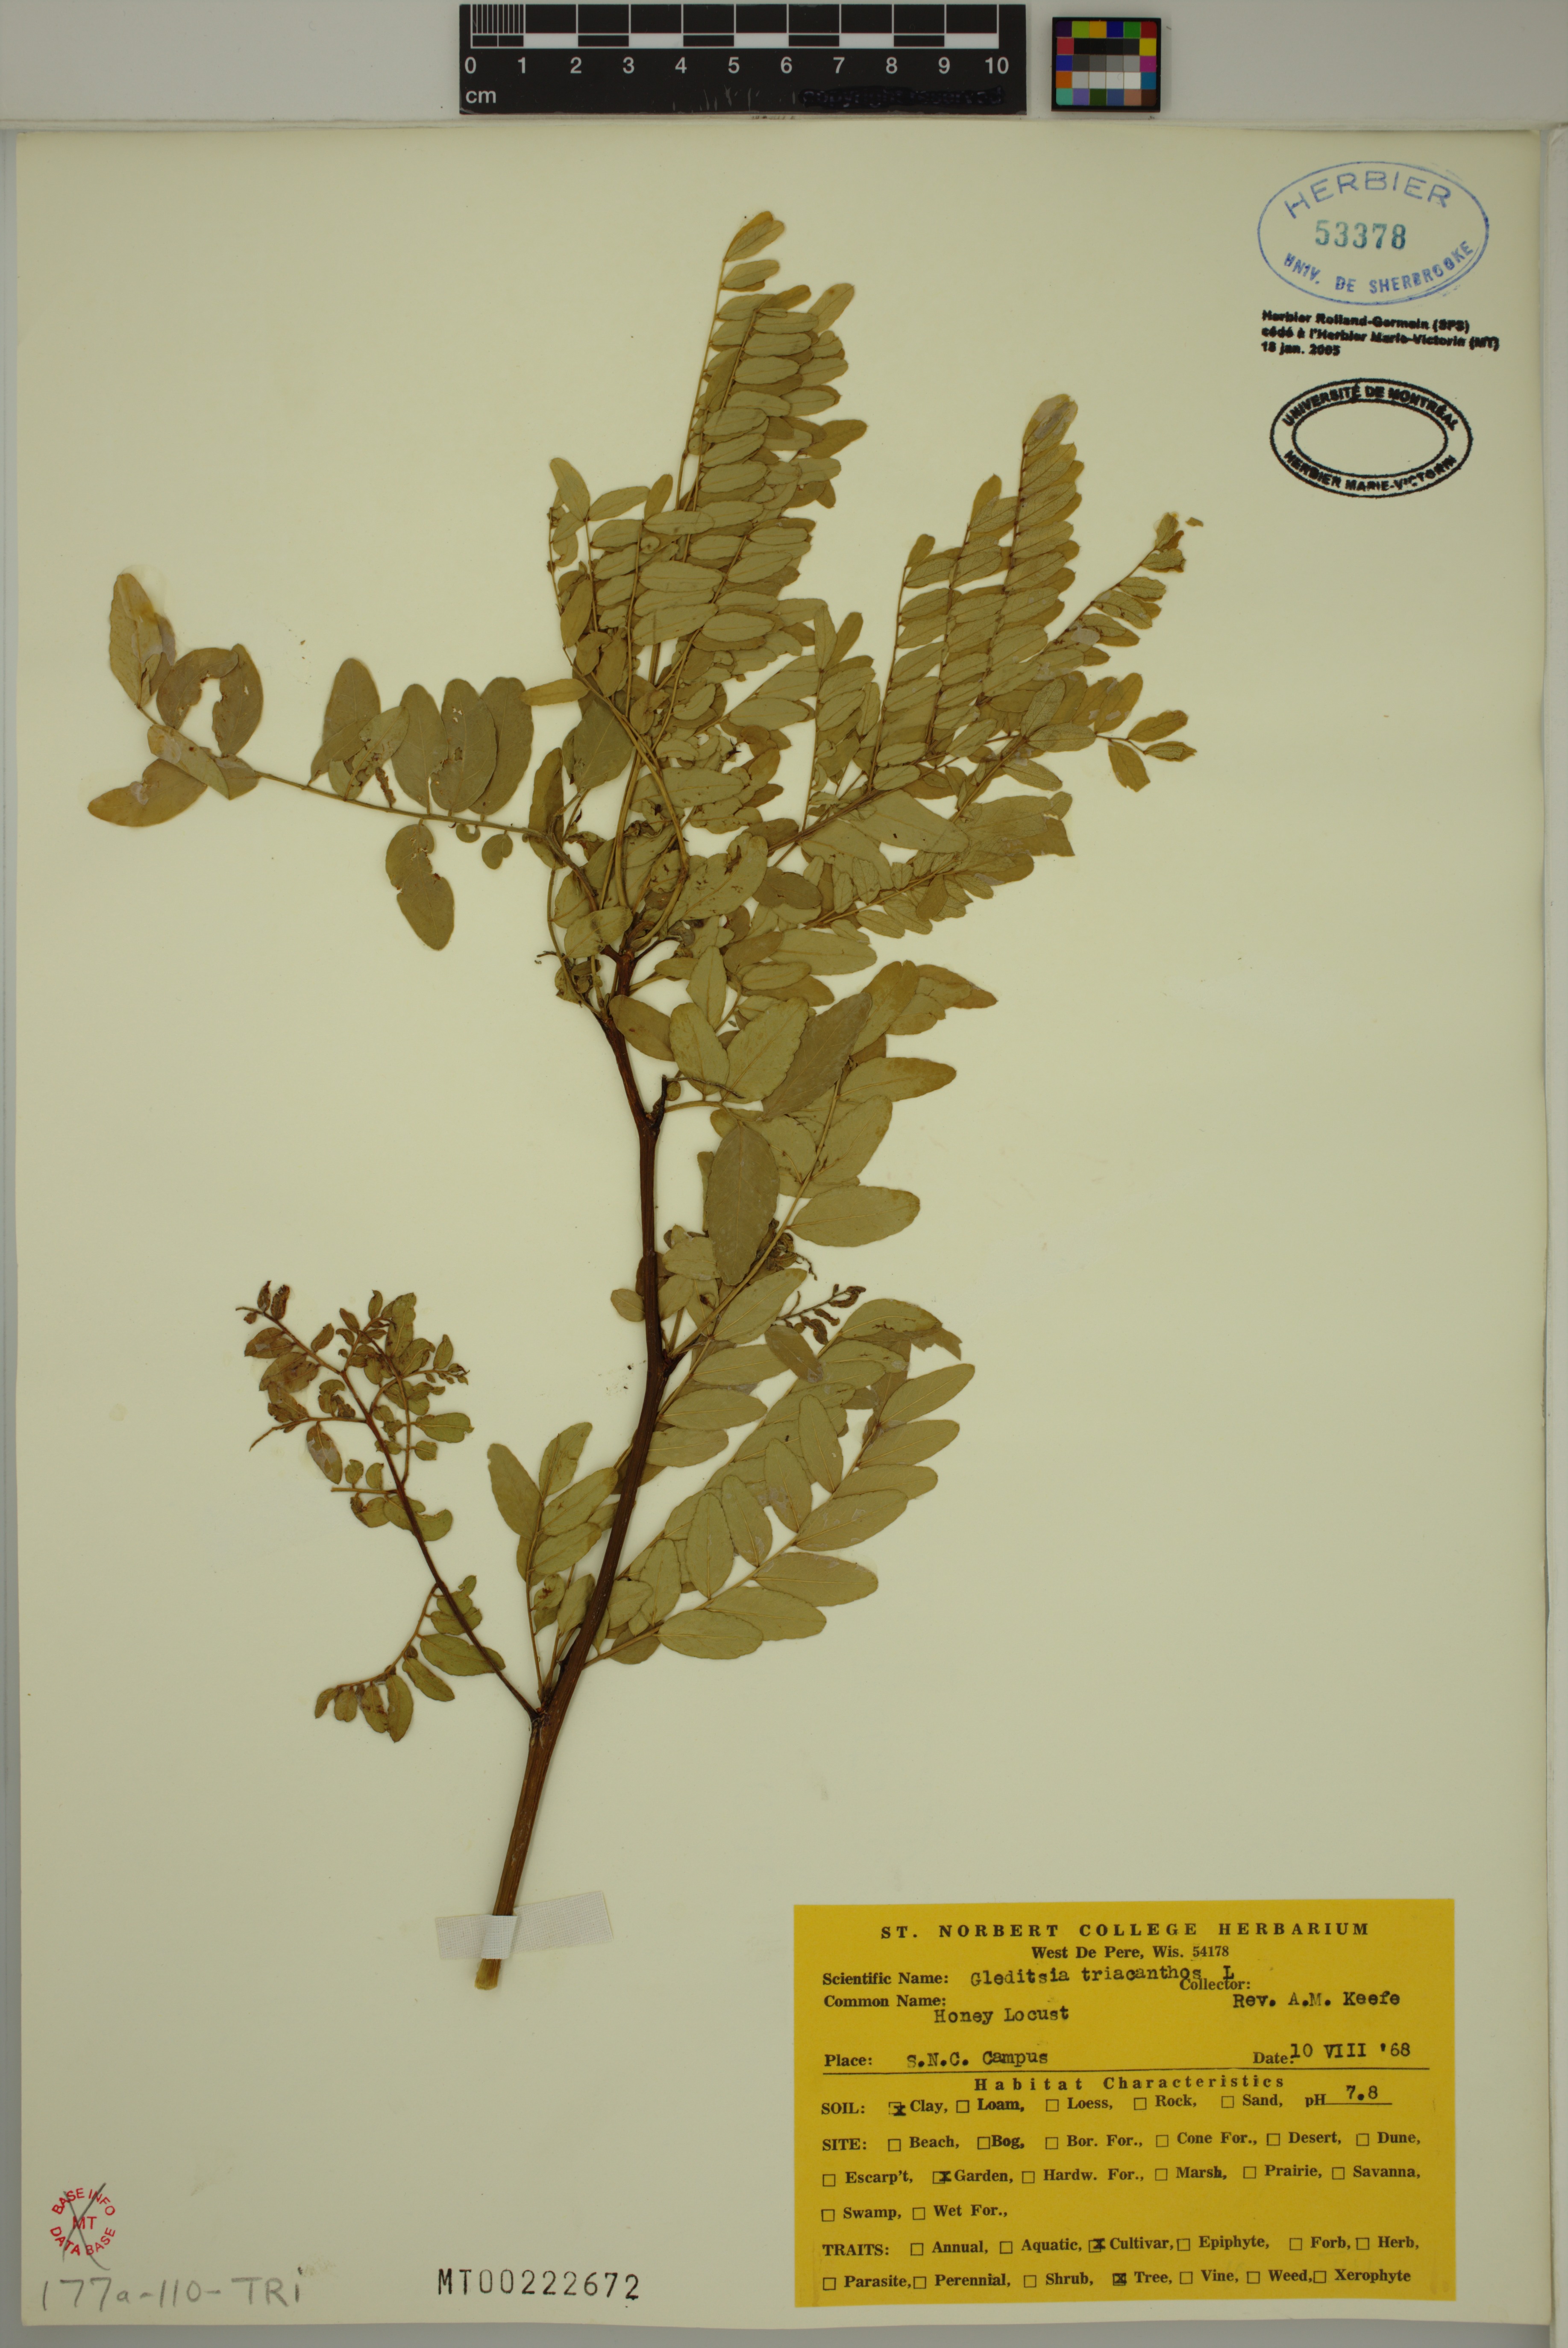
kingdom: Plantae
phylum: Tracheophyta
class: Magnoliopsida
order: Fabales
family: Fabaceae
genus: Gleditsia
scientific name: Gleditsia triacanthos
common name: Common honeylocust
